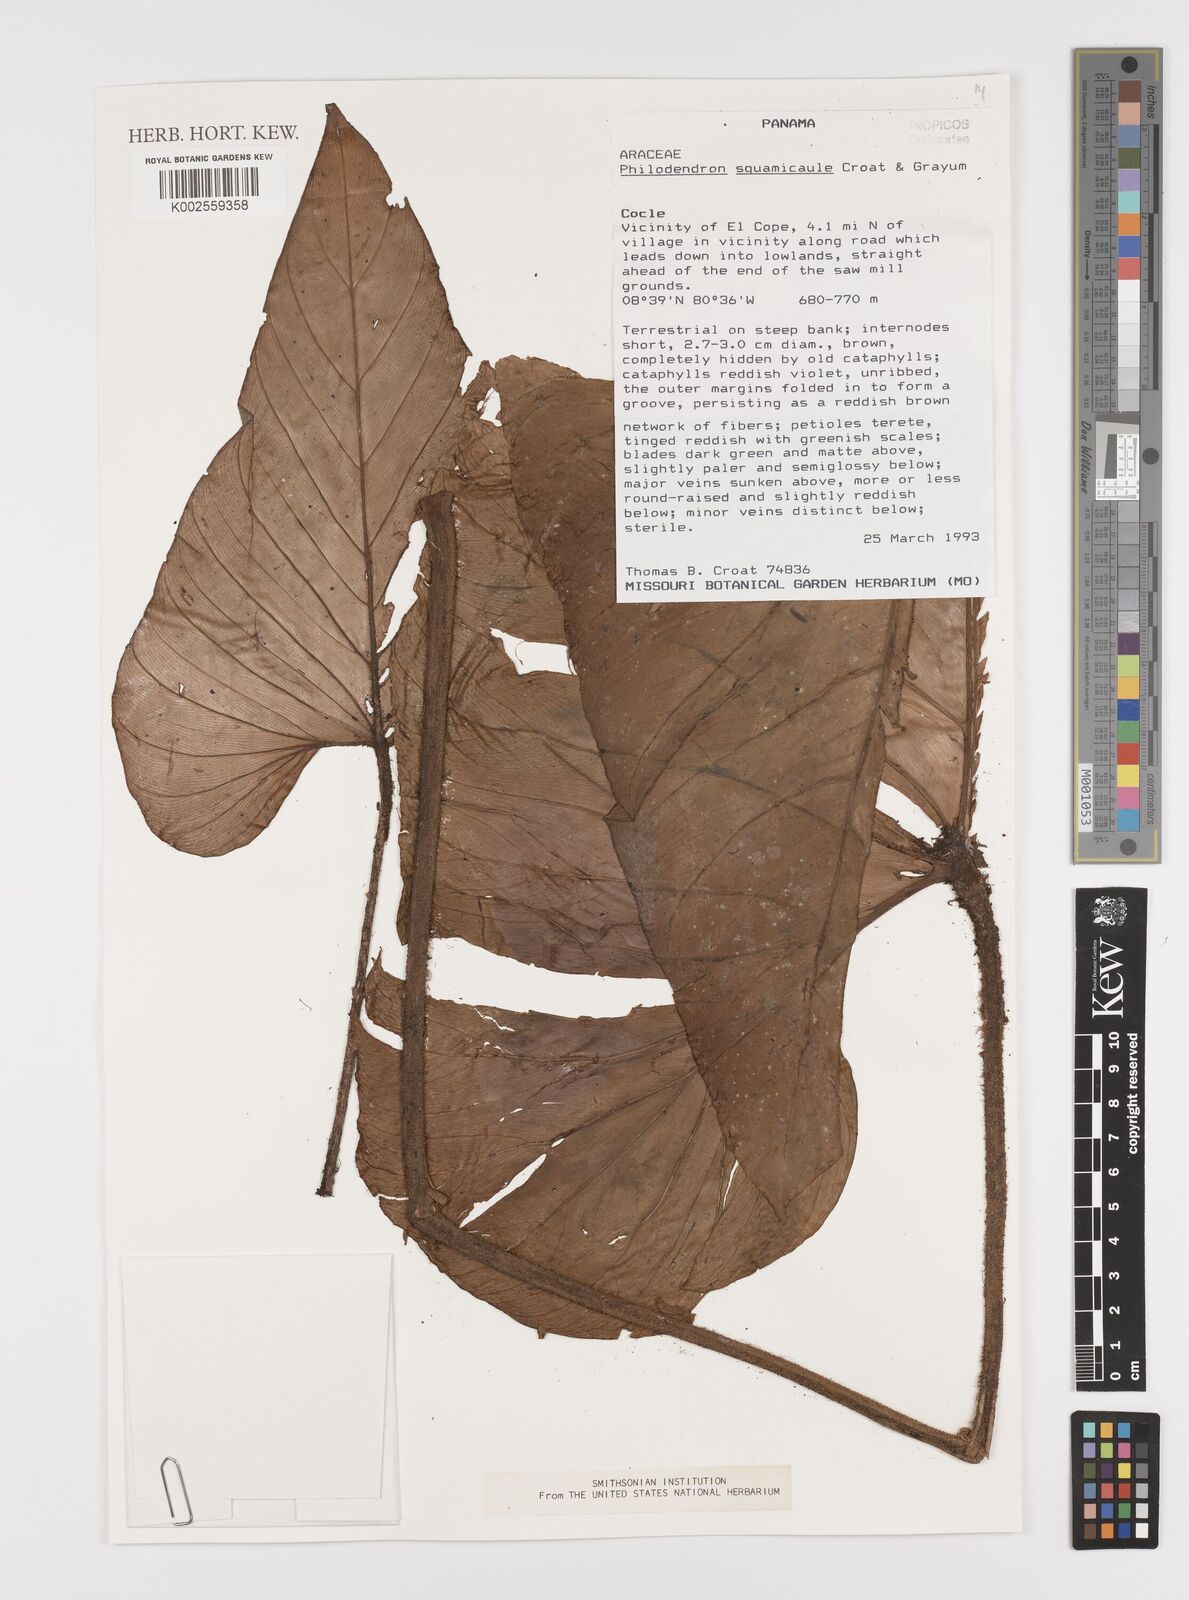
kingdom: Plantae
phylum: Tracheophyta
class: Liliopsida
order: Alismatales
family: Araceae
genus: Philodendron
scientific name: Philodendron squamicaule
